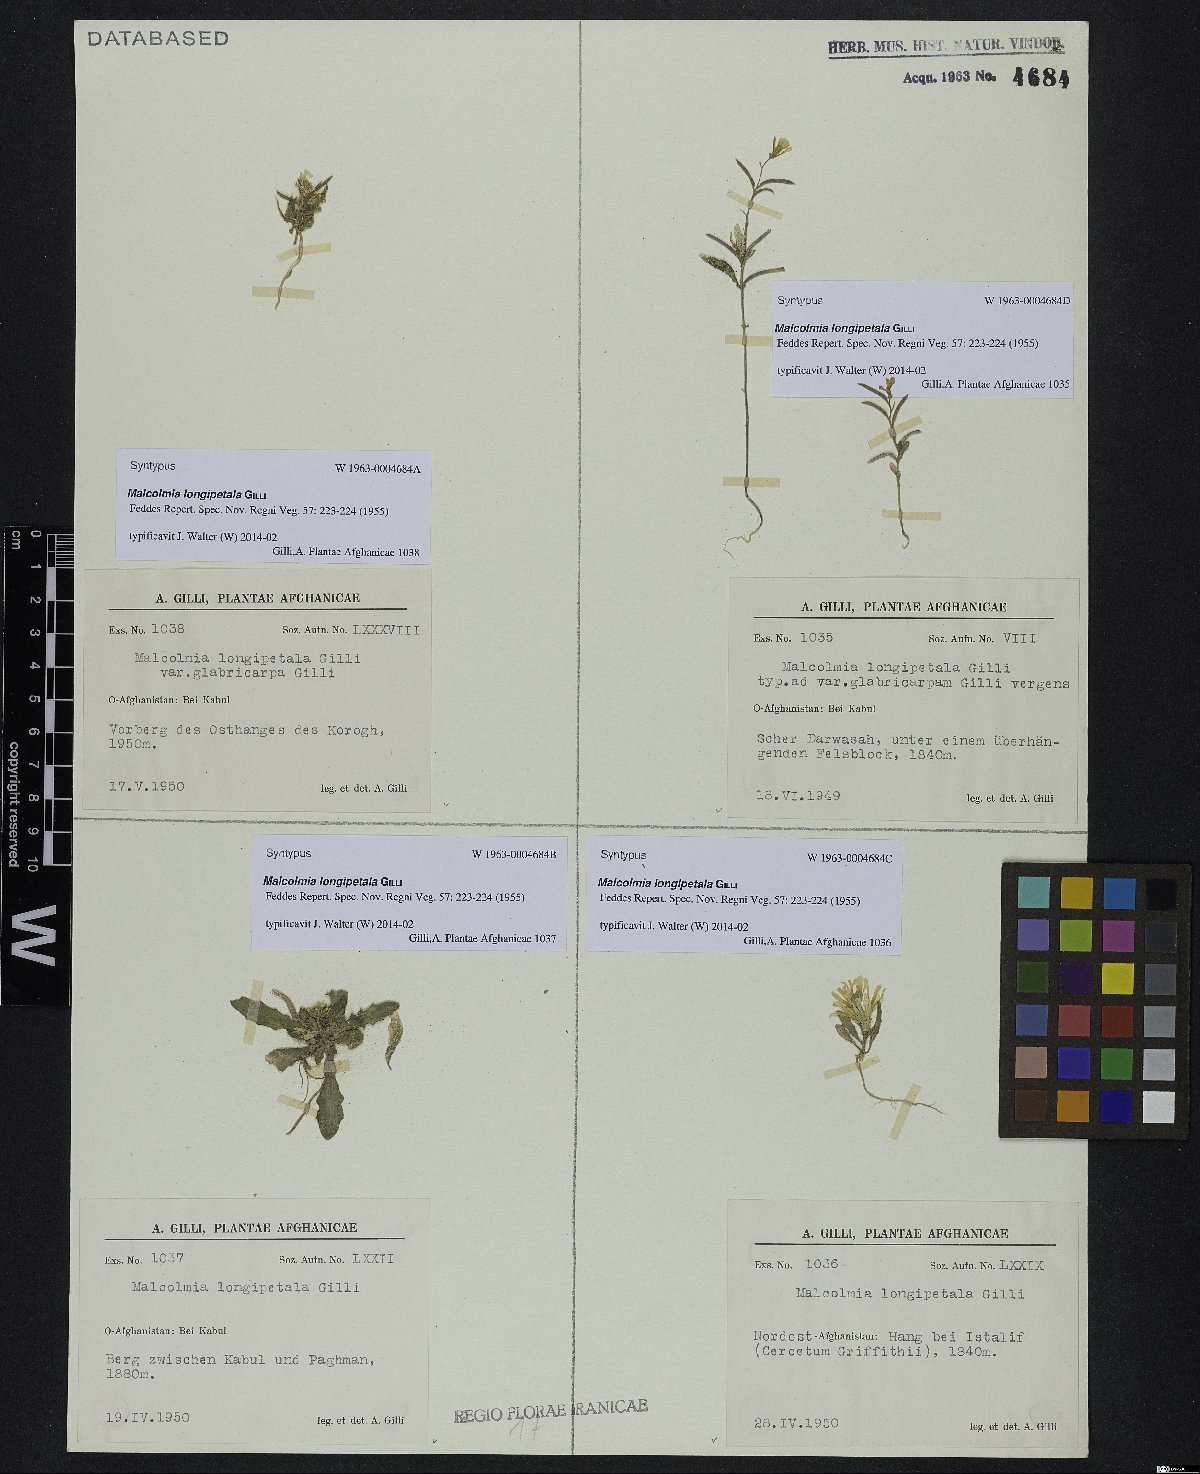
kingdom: Plantae
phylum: Tracheophyta
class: Magnoliopsida
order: Brassicales
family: Brassicaceae
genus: Strigosella
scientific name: Strigosella longipetala
